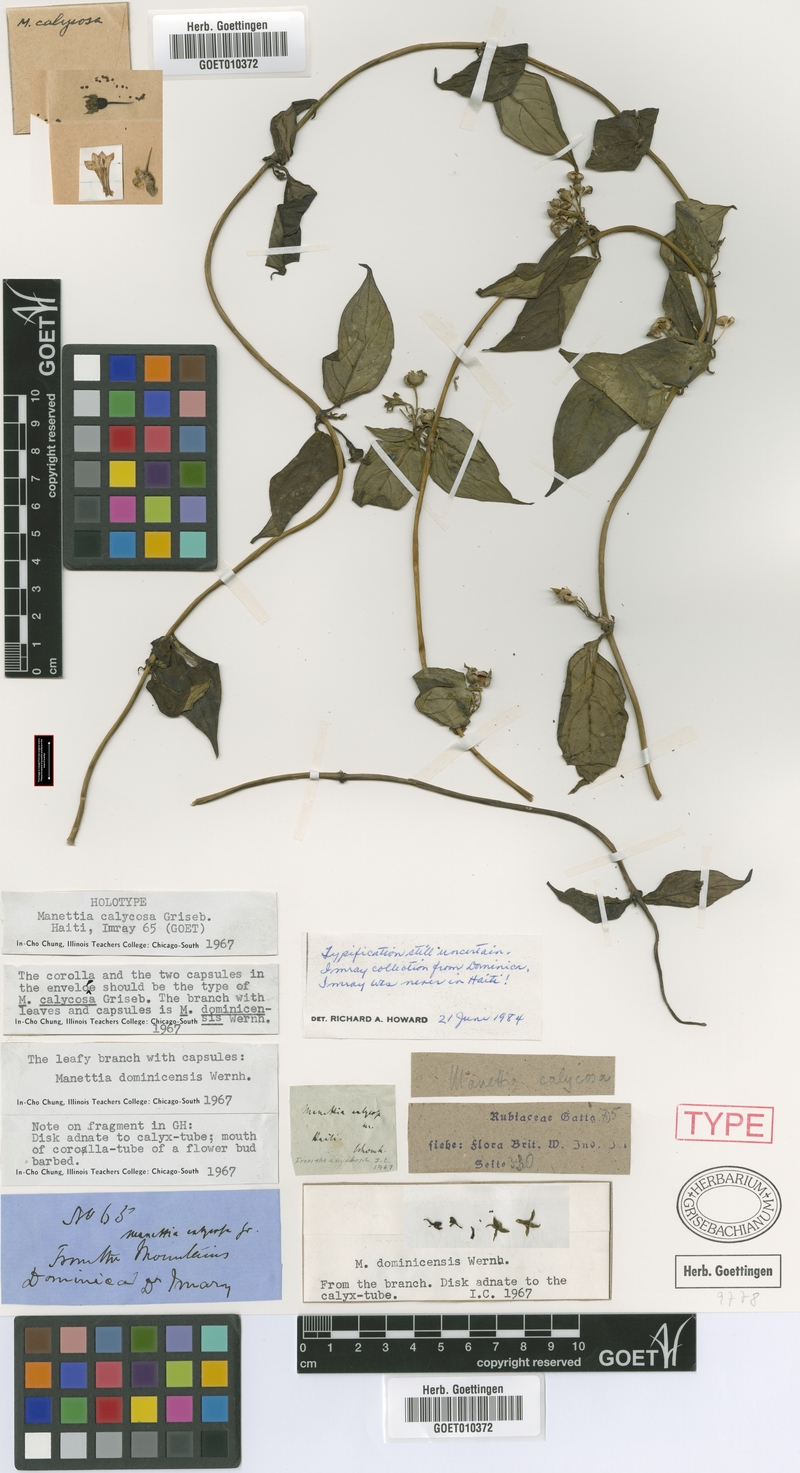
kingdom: Plantae
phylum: Tracheophyta
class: Magnoliopsida
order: Gentianales
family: Rubiaceae
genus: Manettia
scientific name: Manettia calycosa
